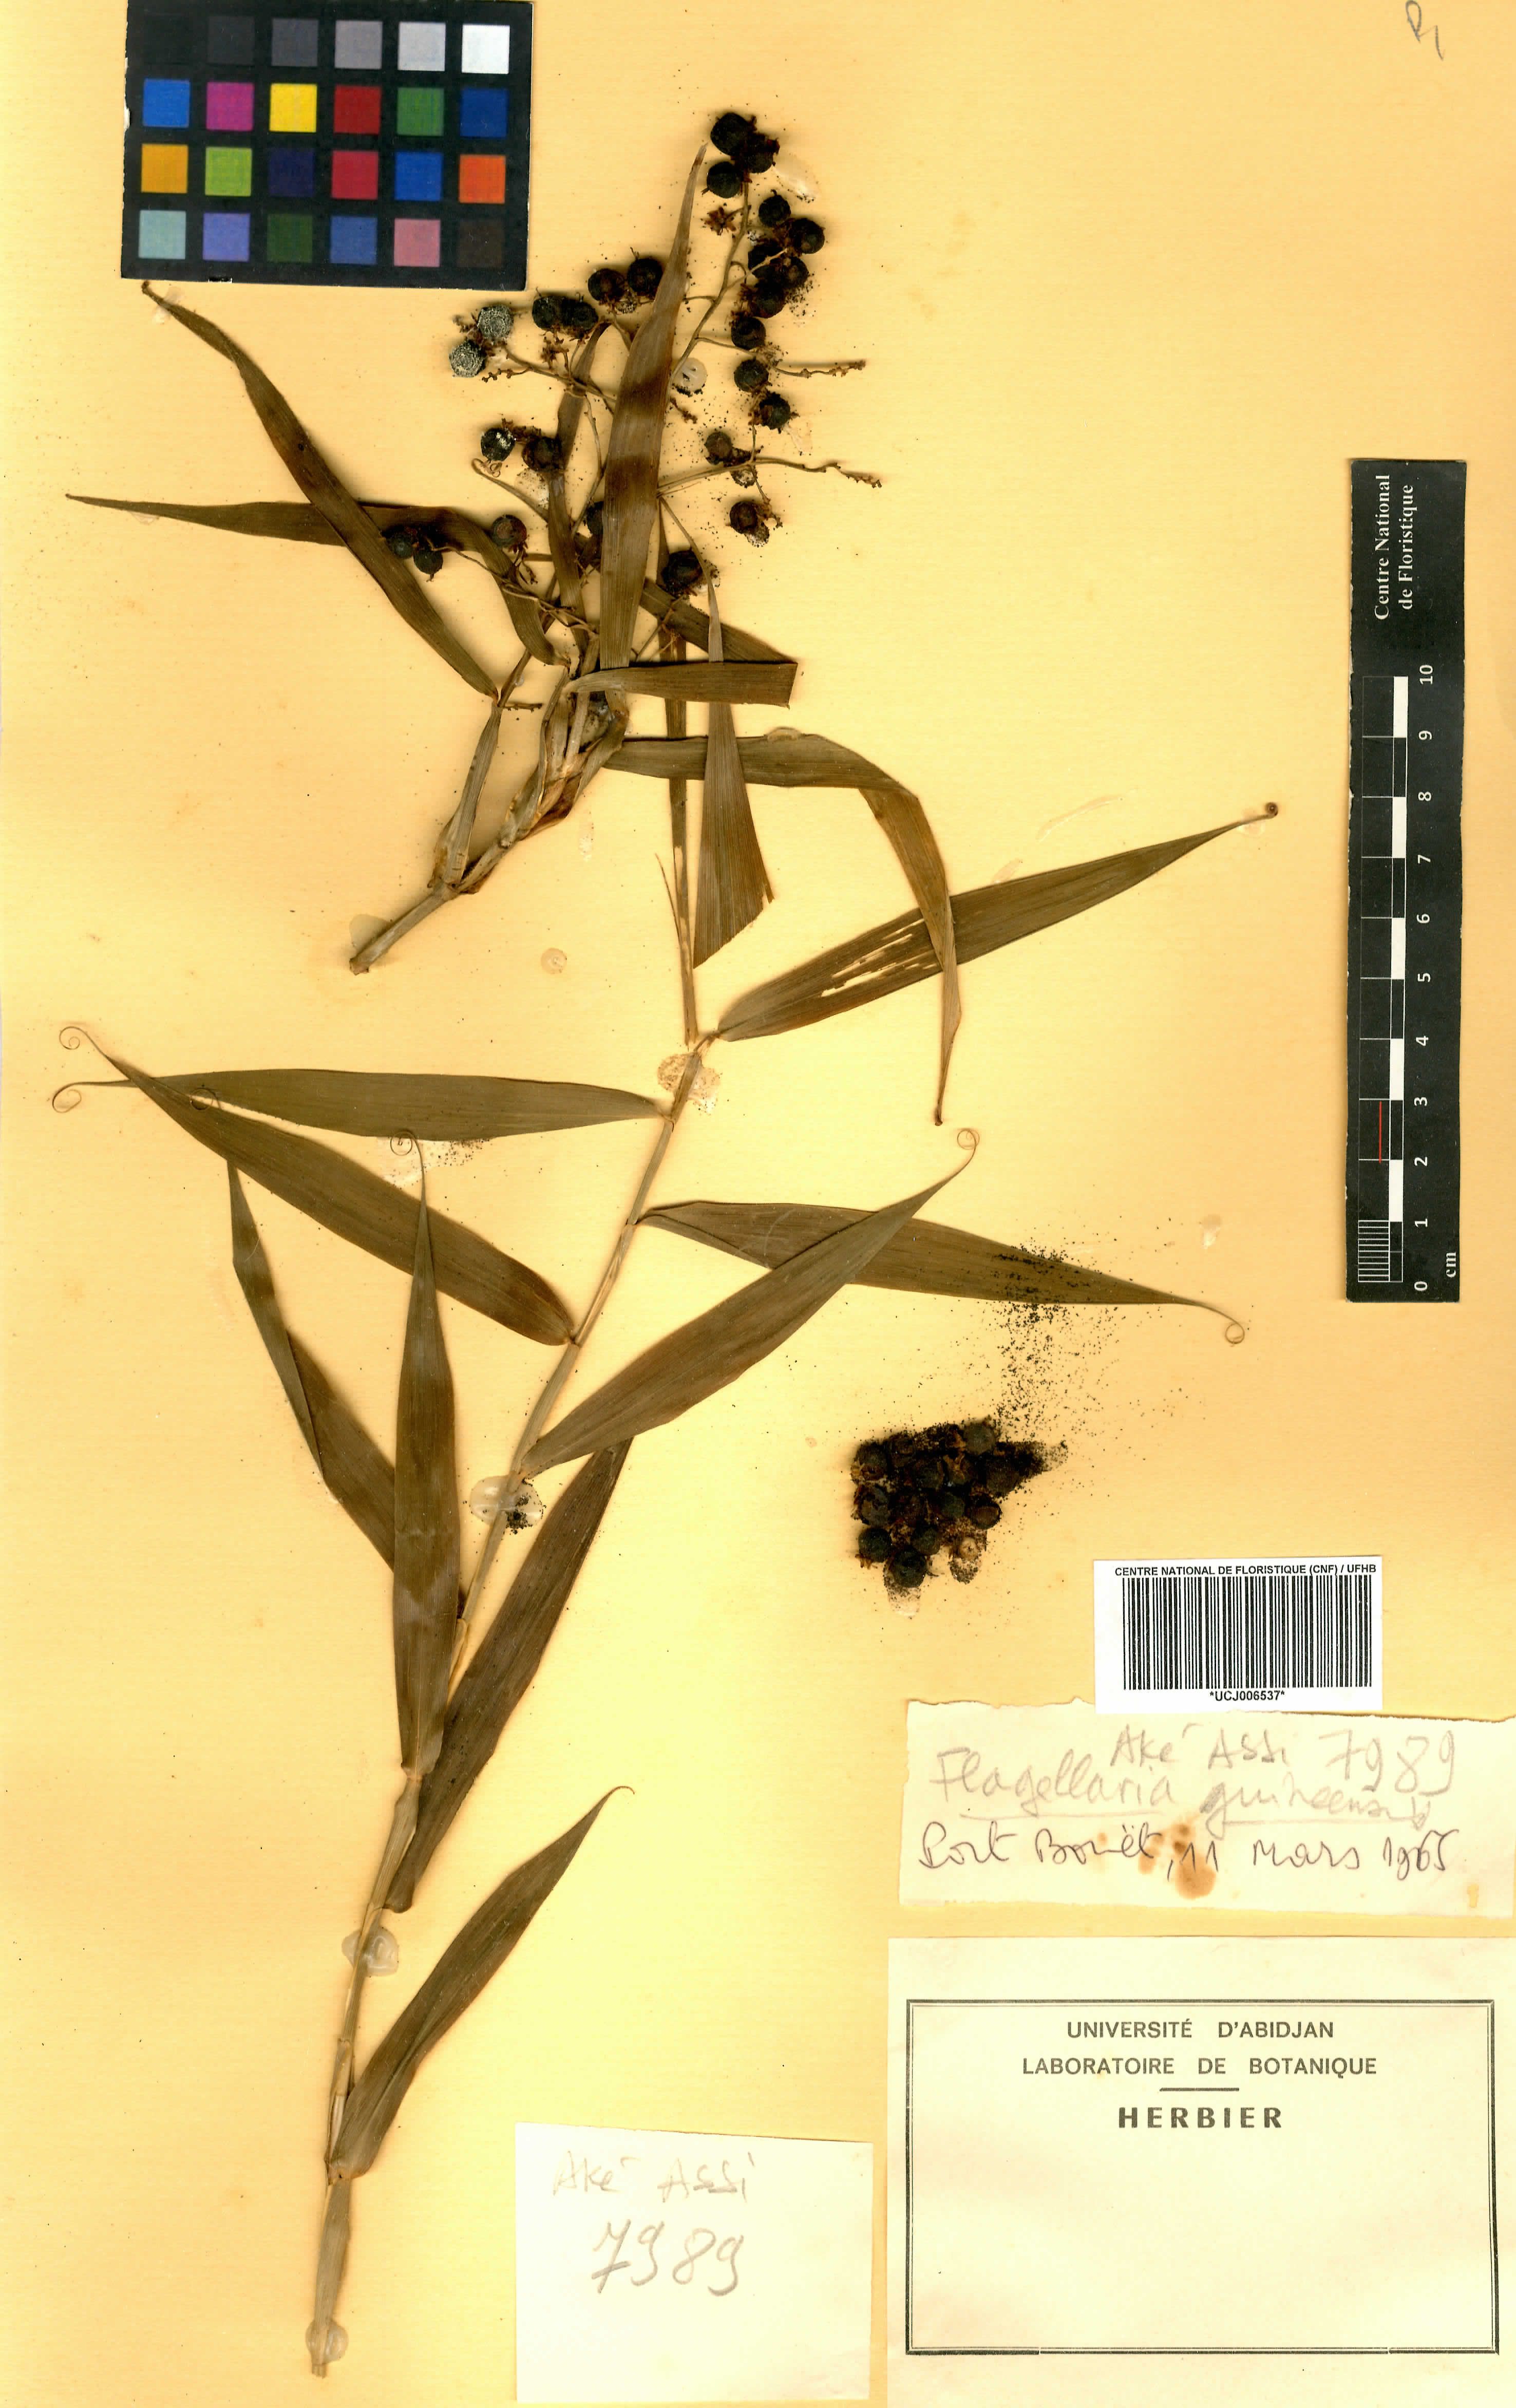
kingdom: Plantae
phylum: Tracheophyta
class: Liliopsida
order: Poales
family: Flagellariaceae
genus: Flagellaria
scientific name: Flagellaria guineensis
